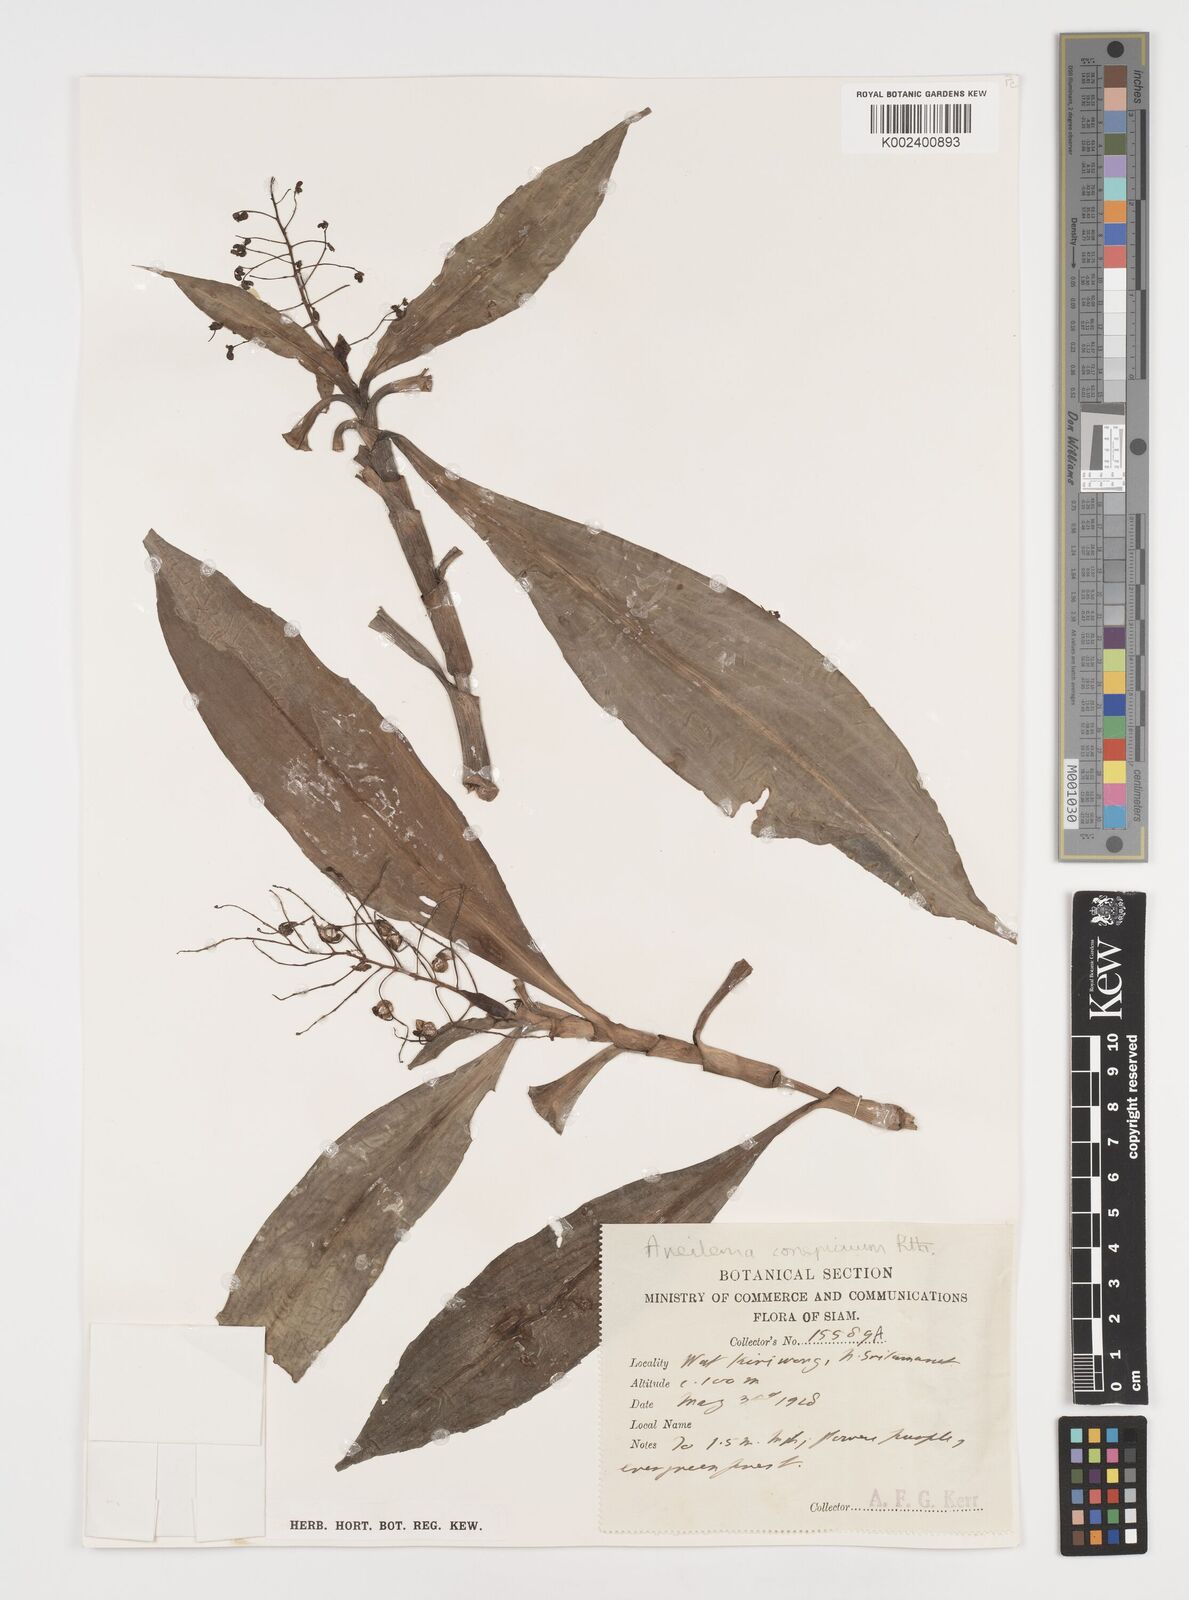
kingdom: Plantae
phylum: Tracheophyta
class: Liliopsida
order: Commelinales
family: Commelinaceae
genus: Dictyospermum
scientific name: Dictyospermum conspicuum
